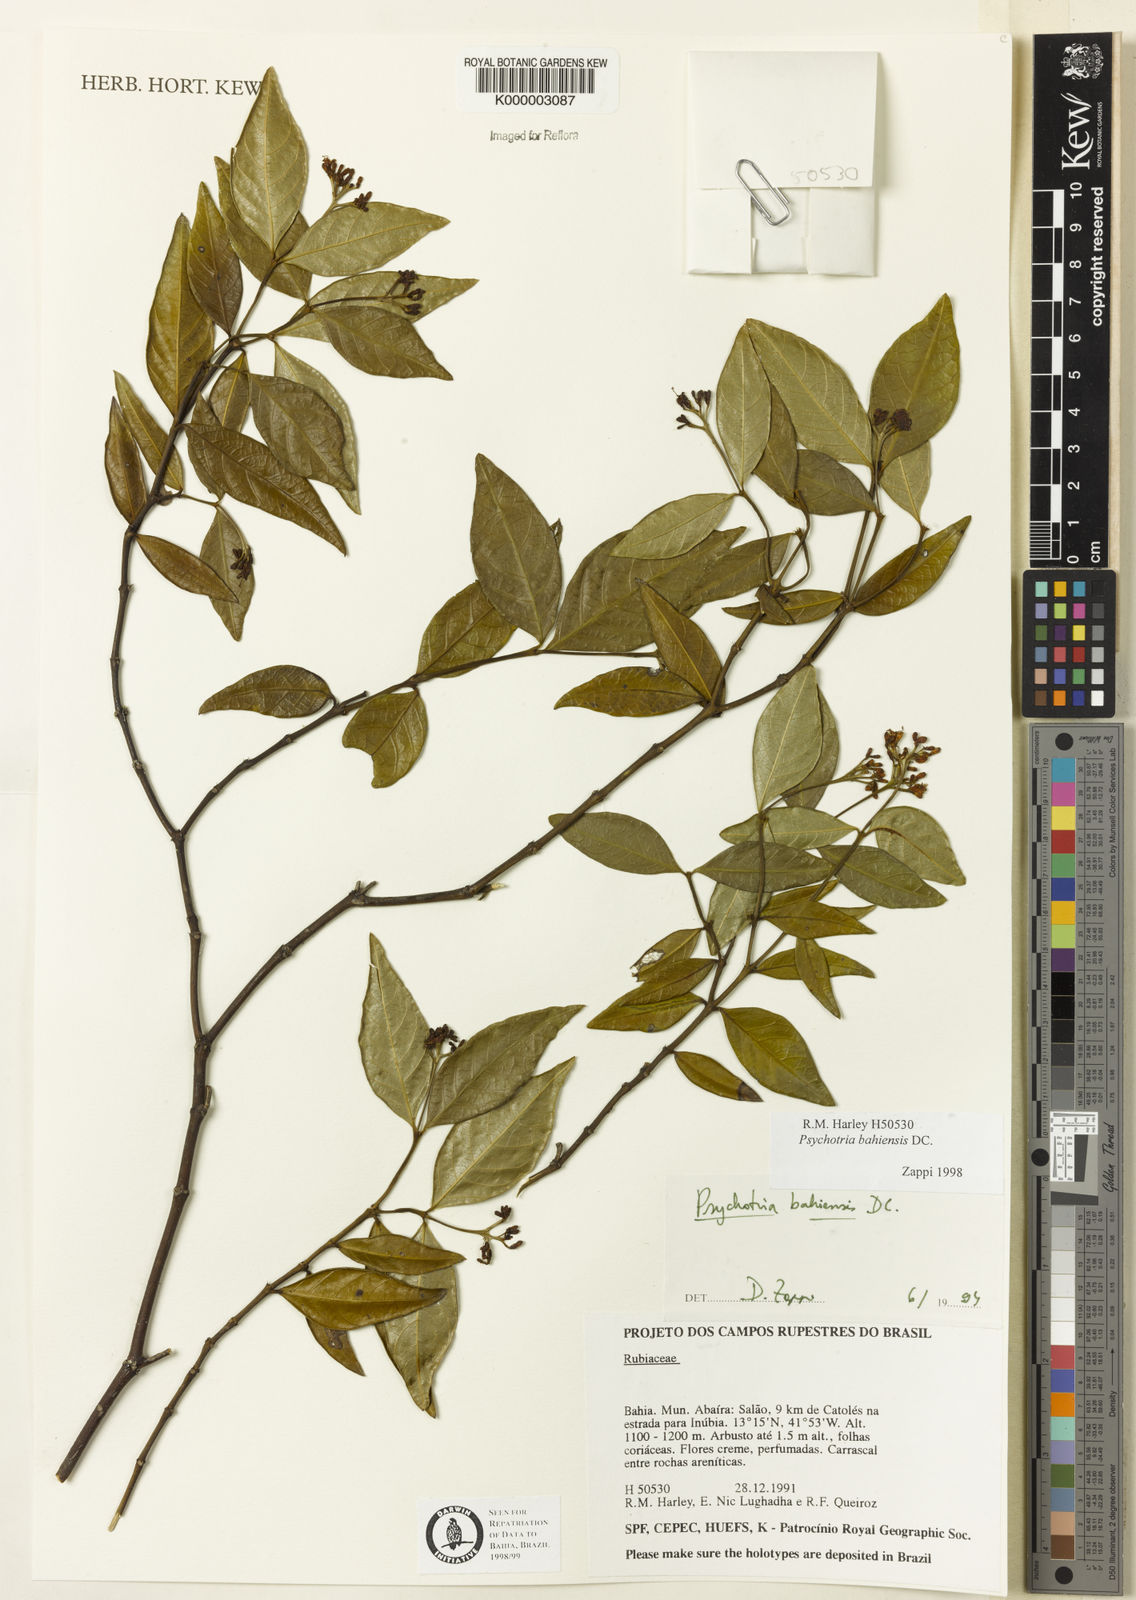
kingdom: Plantae
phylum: Tracheophyta
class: Magnoliopsida
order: Gentianales
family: Rubiaceae
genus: Psychotria
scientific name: Psychotria bahiensis
